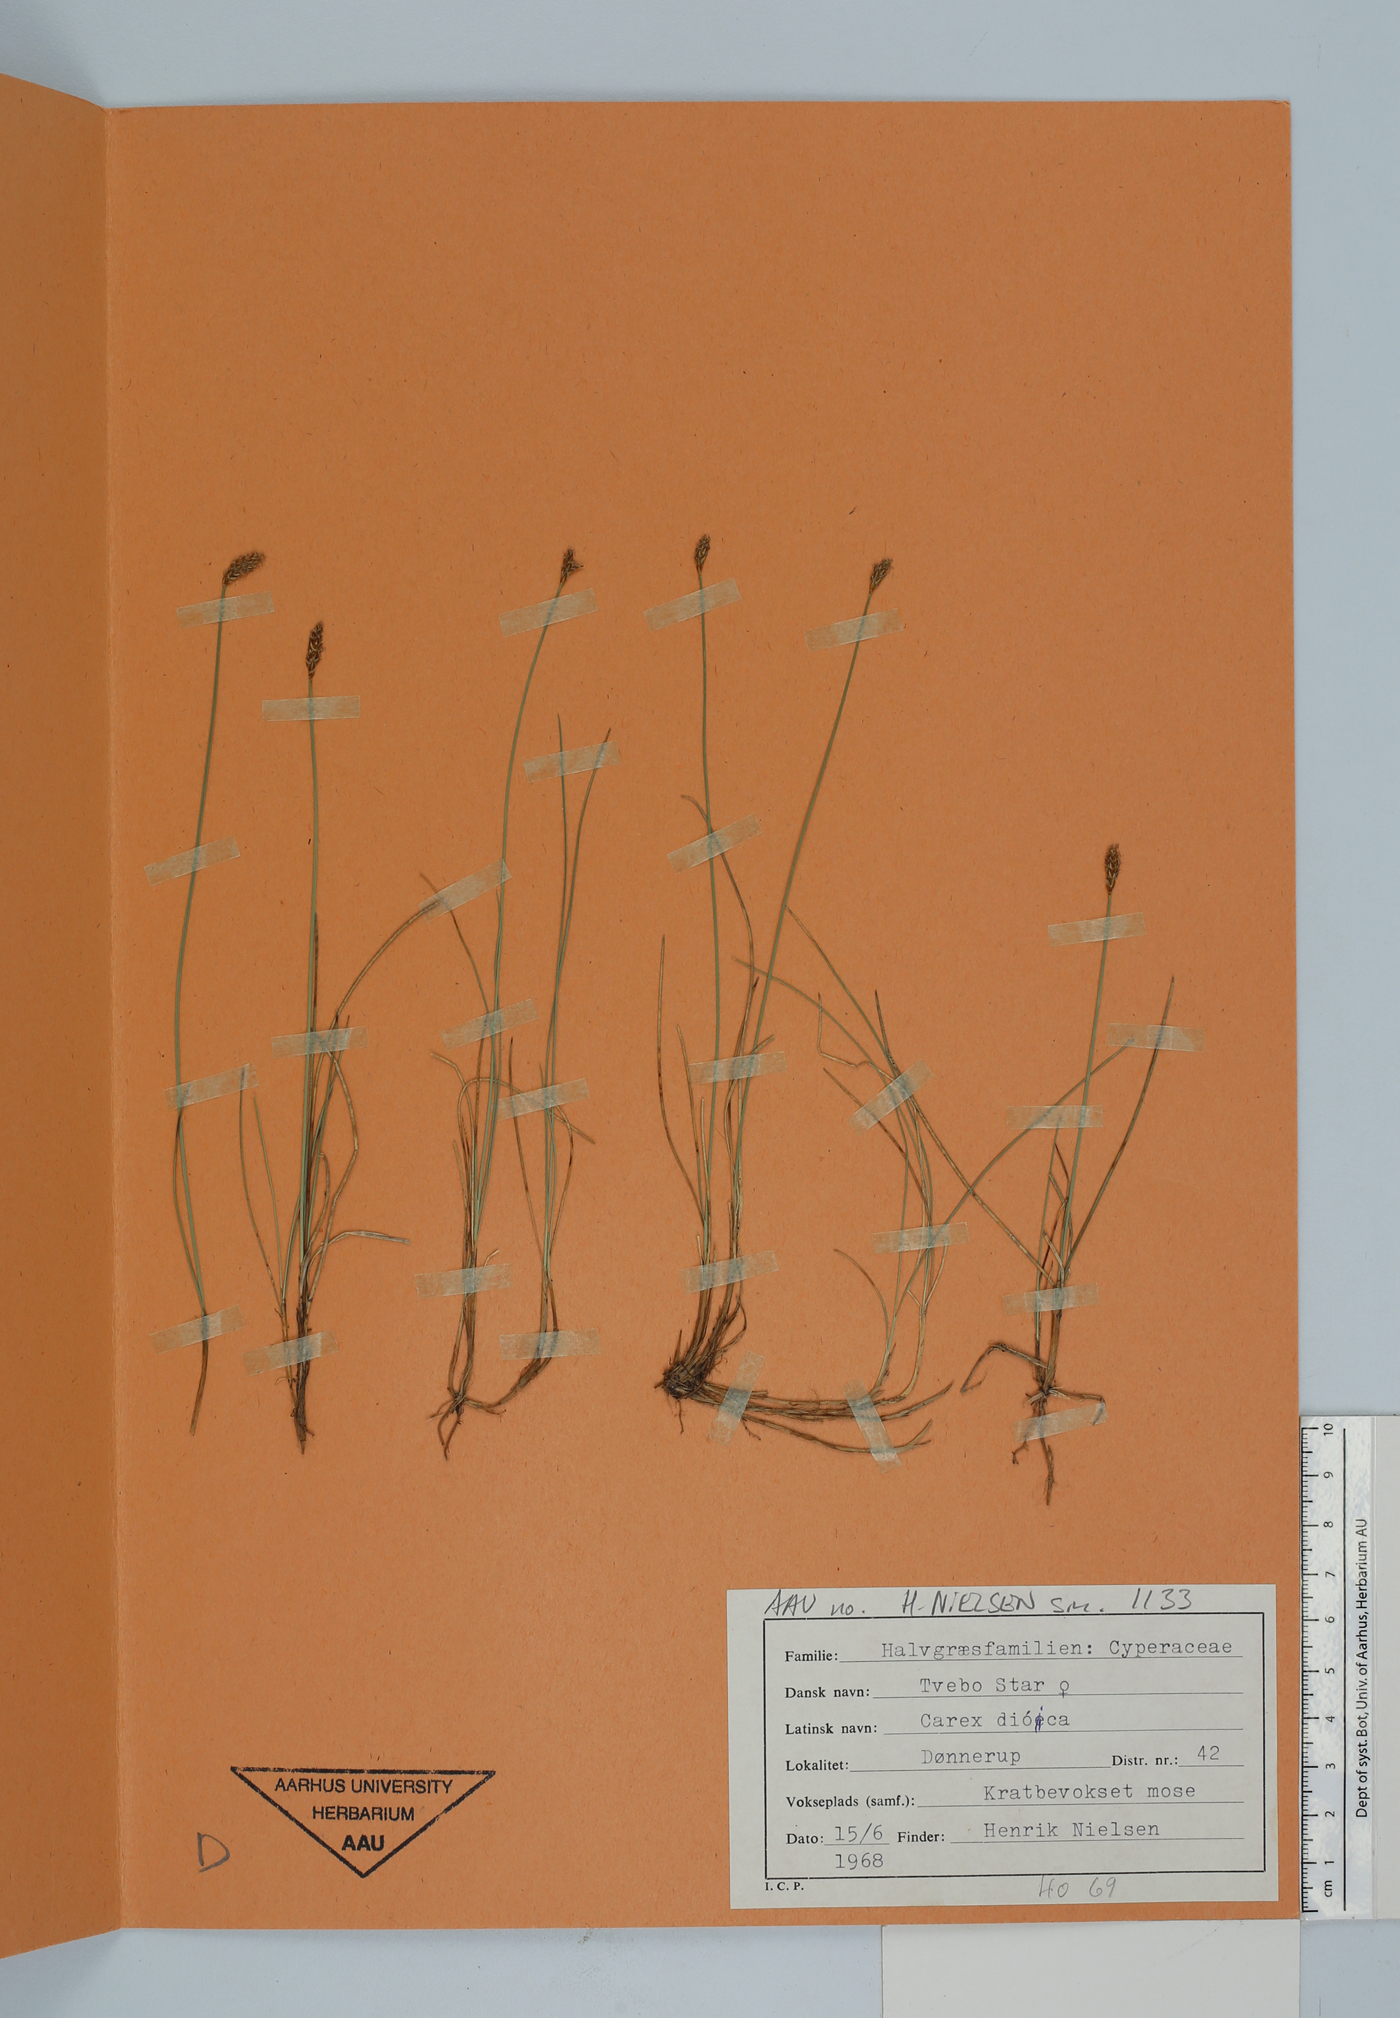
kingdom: Plantae
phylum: Tracheophyta
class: Liliopsida
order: Poales
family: Cyperaceae
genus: Carex
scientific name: Carex dioica
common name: Dioecious sedge
